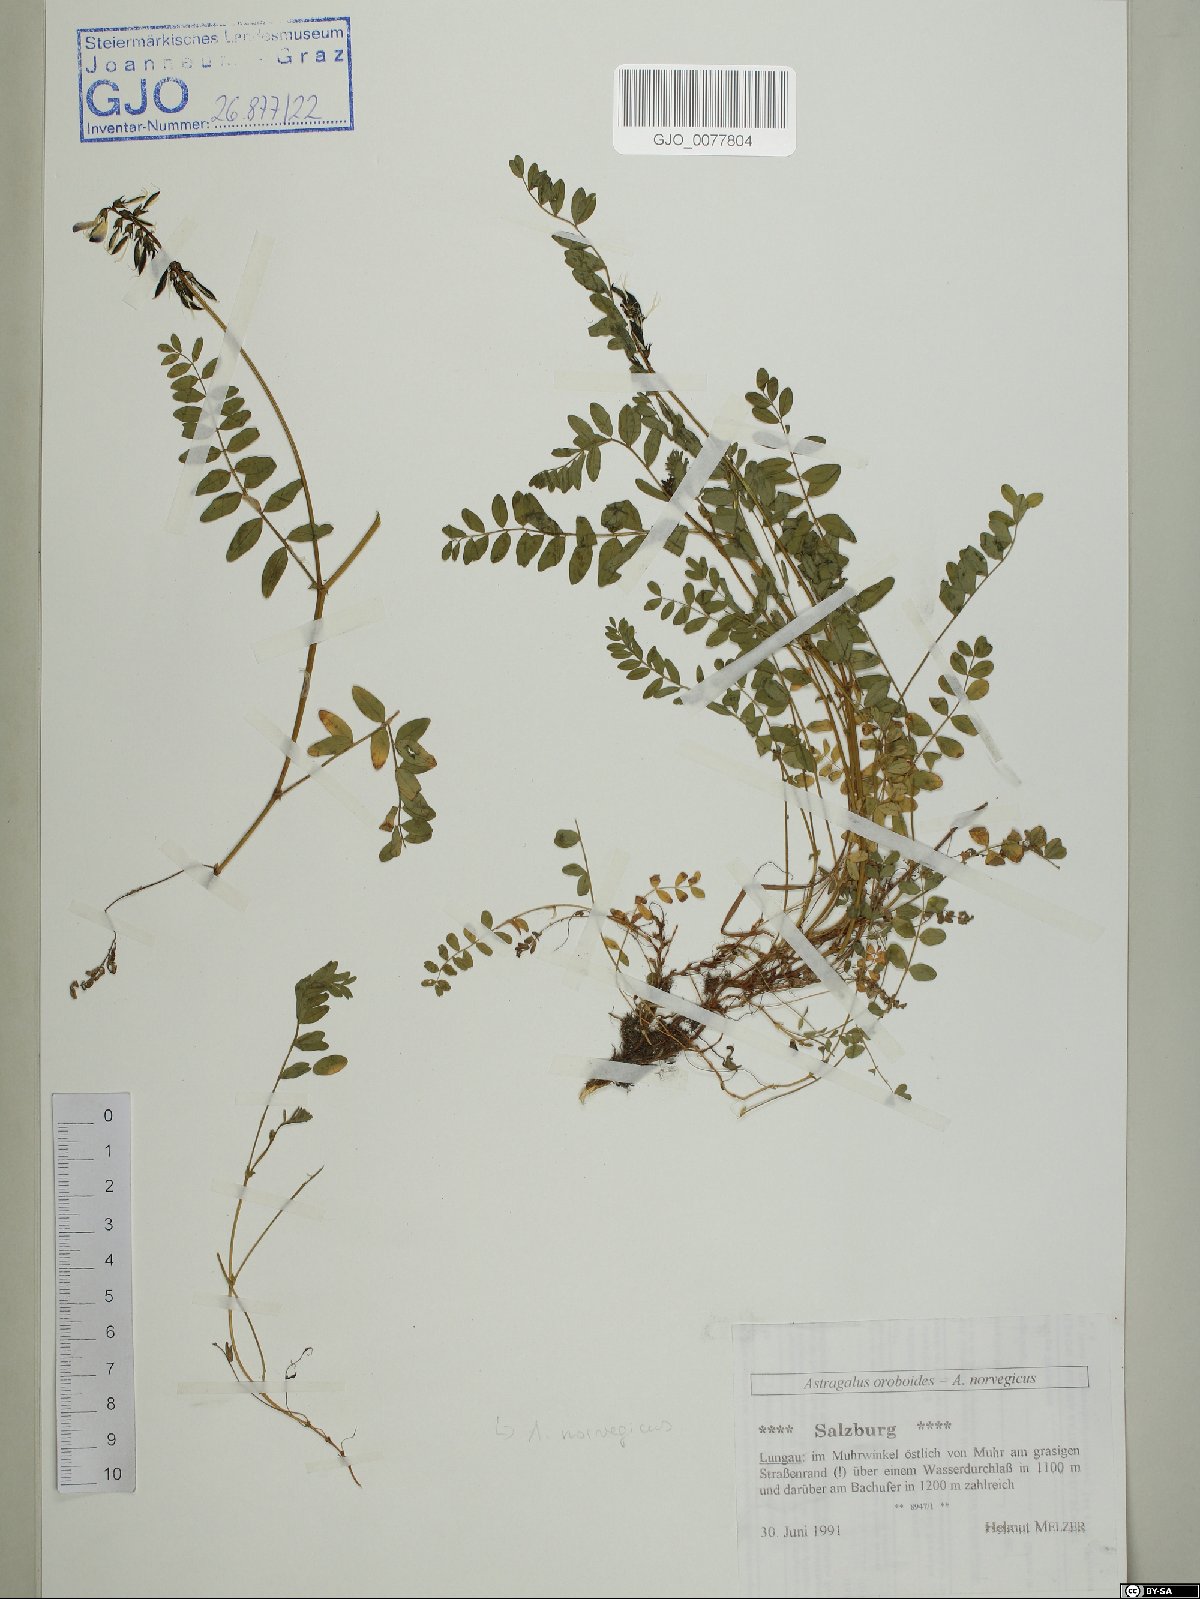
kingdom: Plantae
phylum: Tracheophyta
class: Magnoliopsida
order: Fabales
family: Fabaceae
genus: Astragalus
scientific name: Astragalus norvegicus
